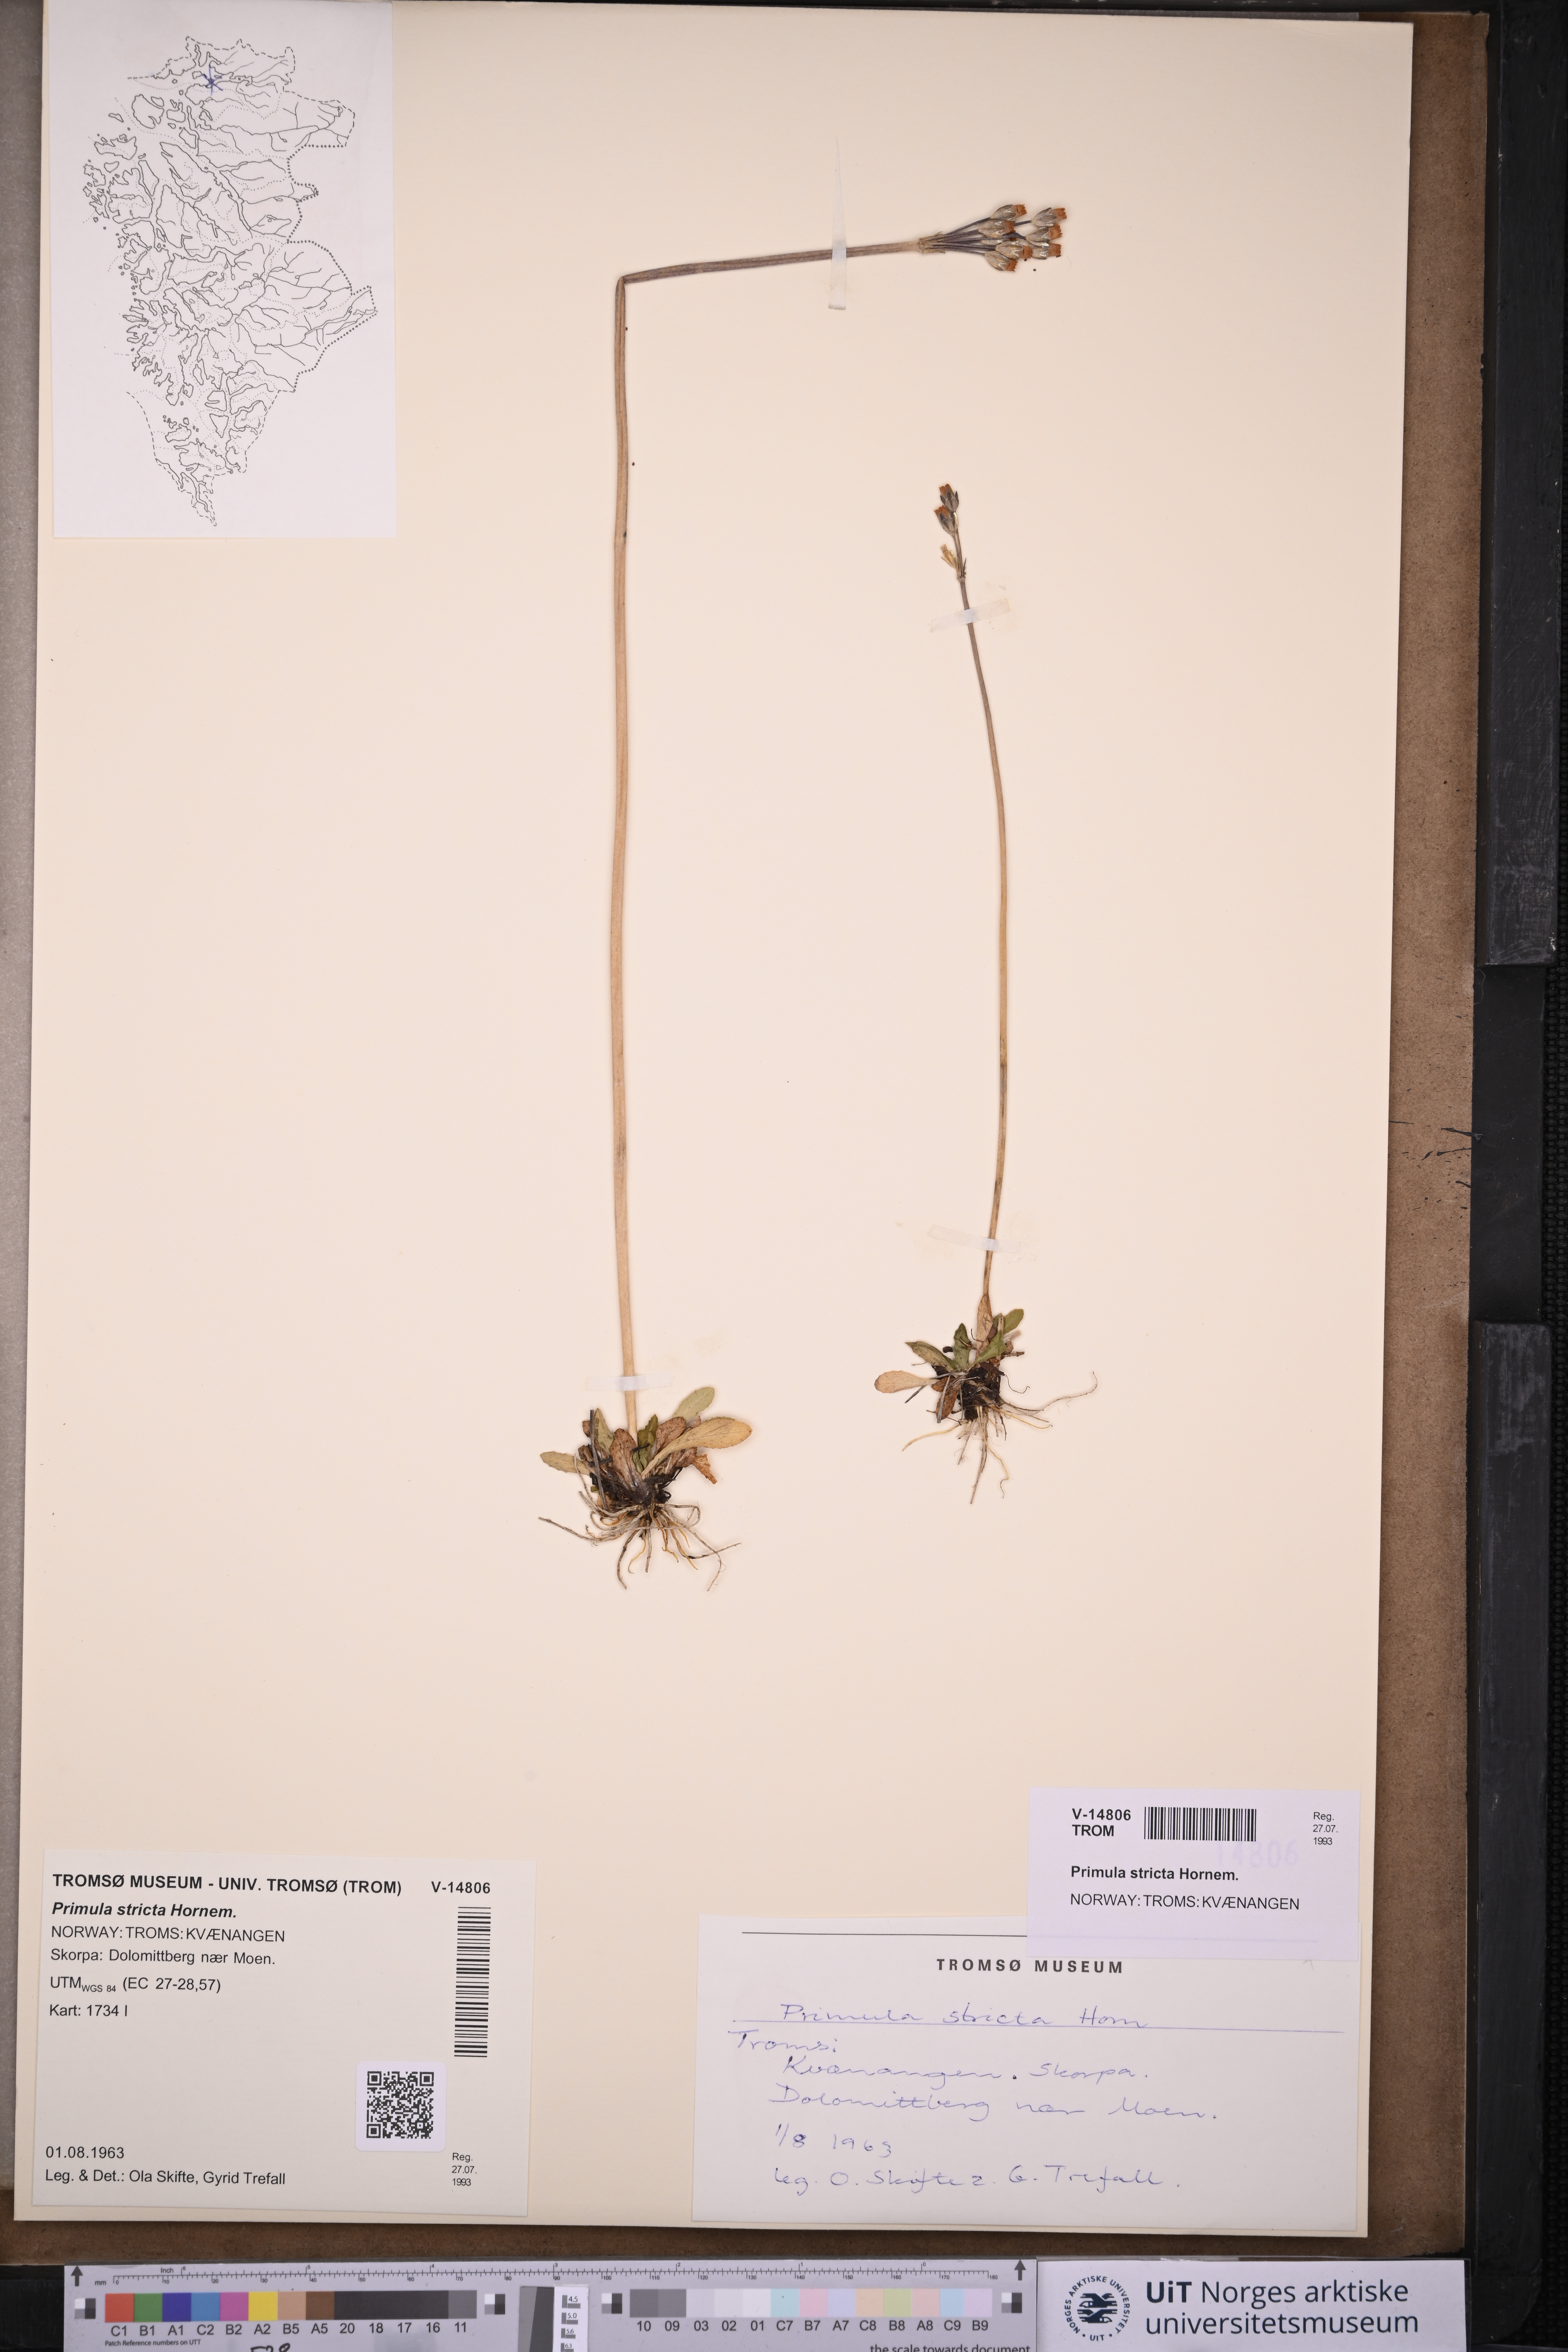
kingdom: Plantae
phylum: Tracheophyta
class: Magnoliopsida
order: Ericales
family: Primulaceae
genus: Primula
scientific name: Primula stricta
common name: Coastal primrose
